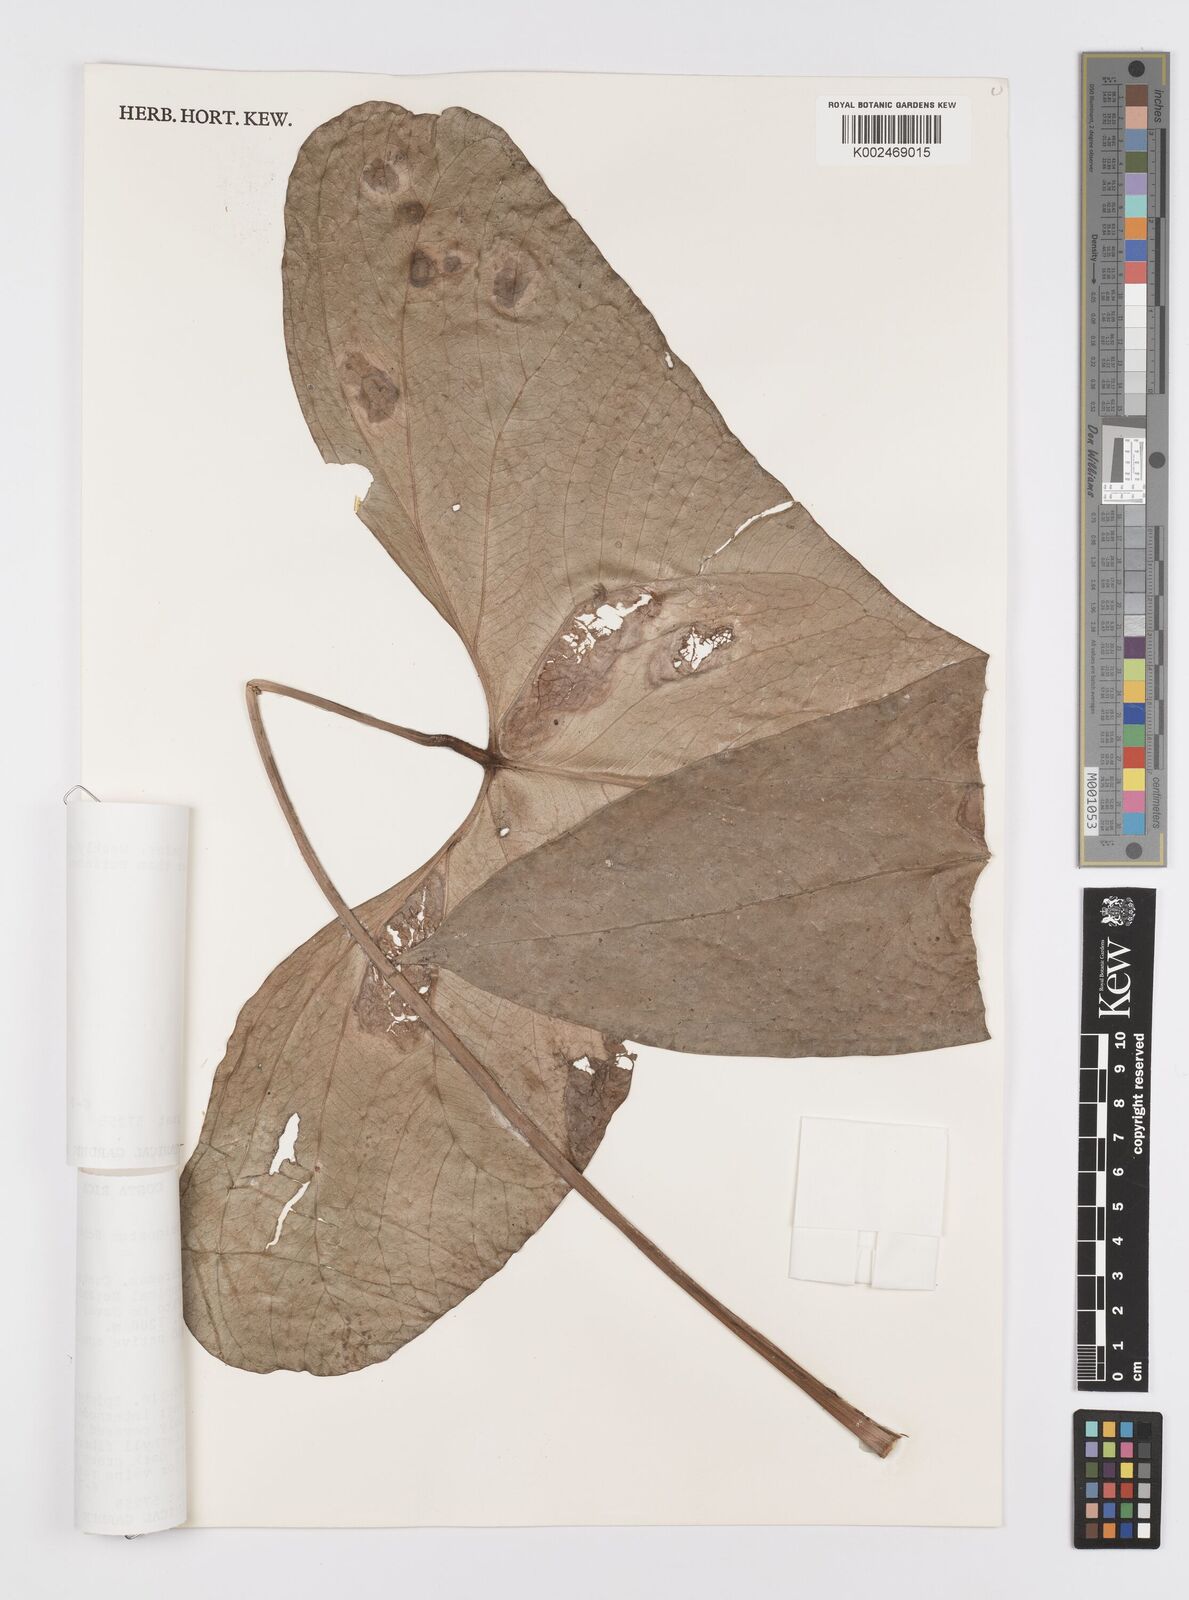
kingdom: Plantae
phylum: Tracheophyta
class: Liliopsida
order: Alismatales
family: Araceae
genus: Anthurium
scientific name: Anthurium subsignatum
